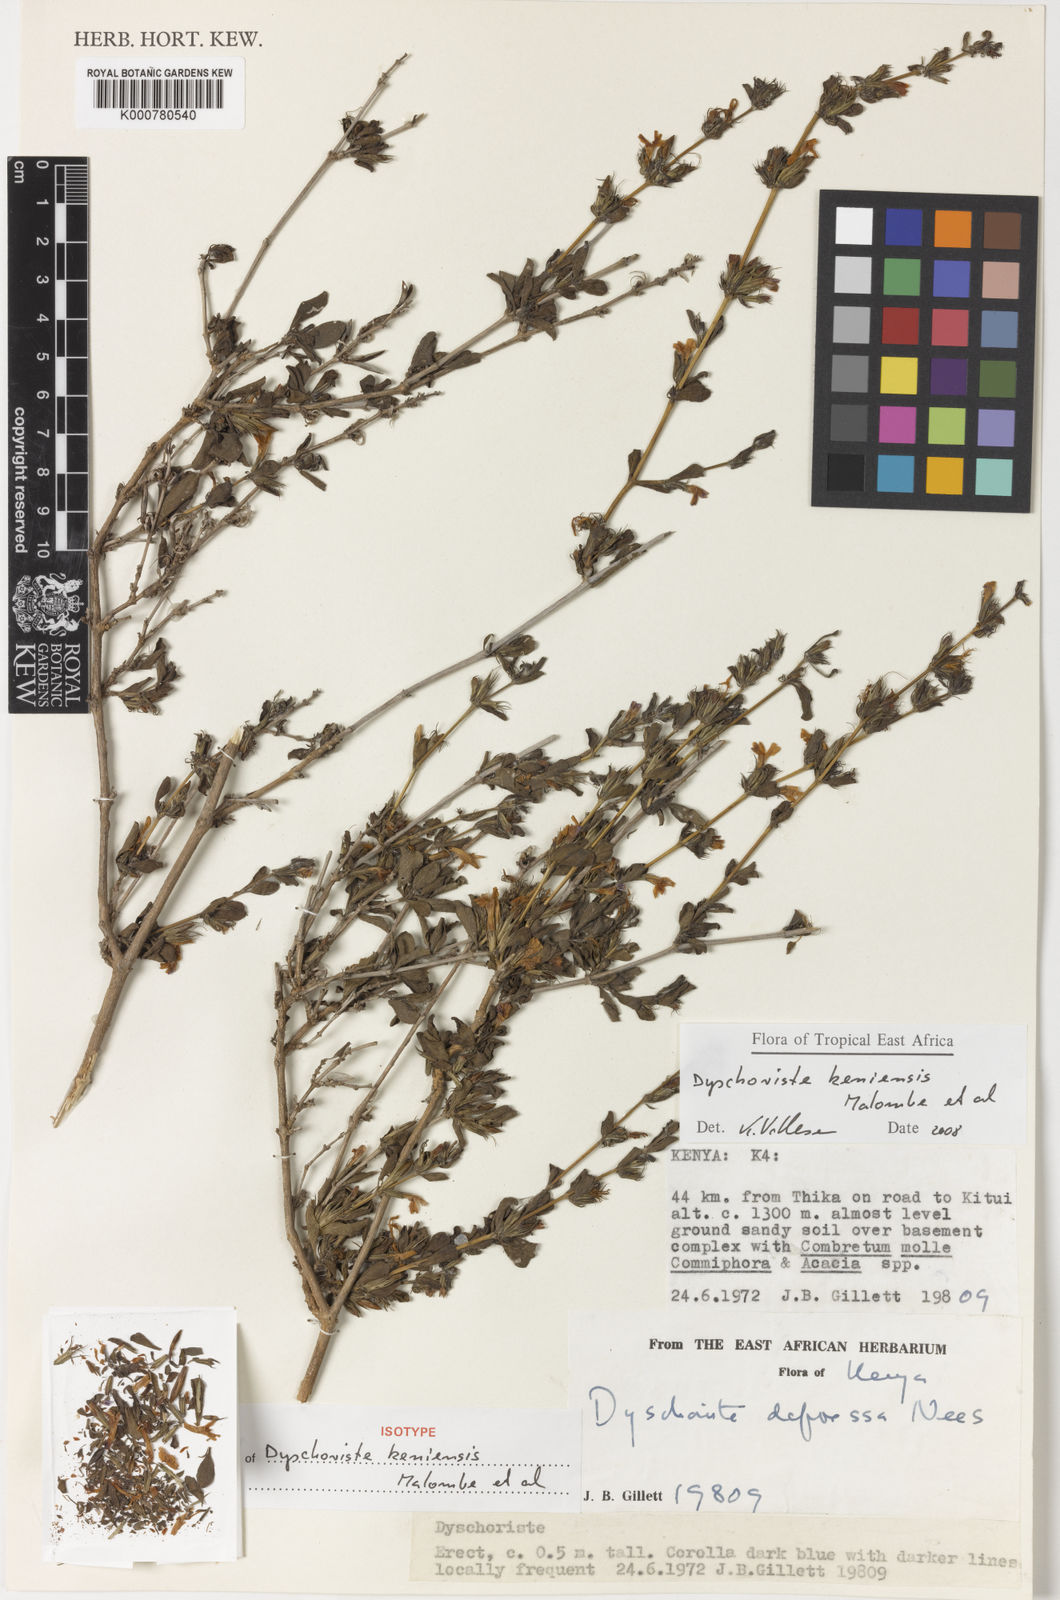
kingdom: Plantae
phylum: Tracheophyta
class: Magnoliopsida
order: Lamiales
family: Acanthaceae
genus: Dyschoriste
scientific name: Dyschoriste keniensis
